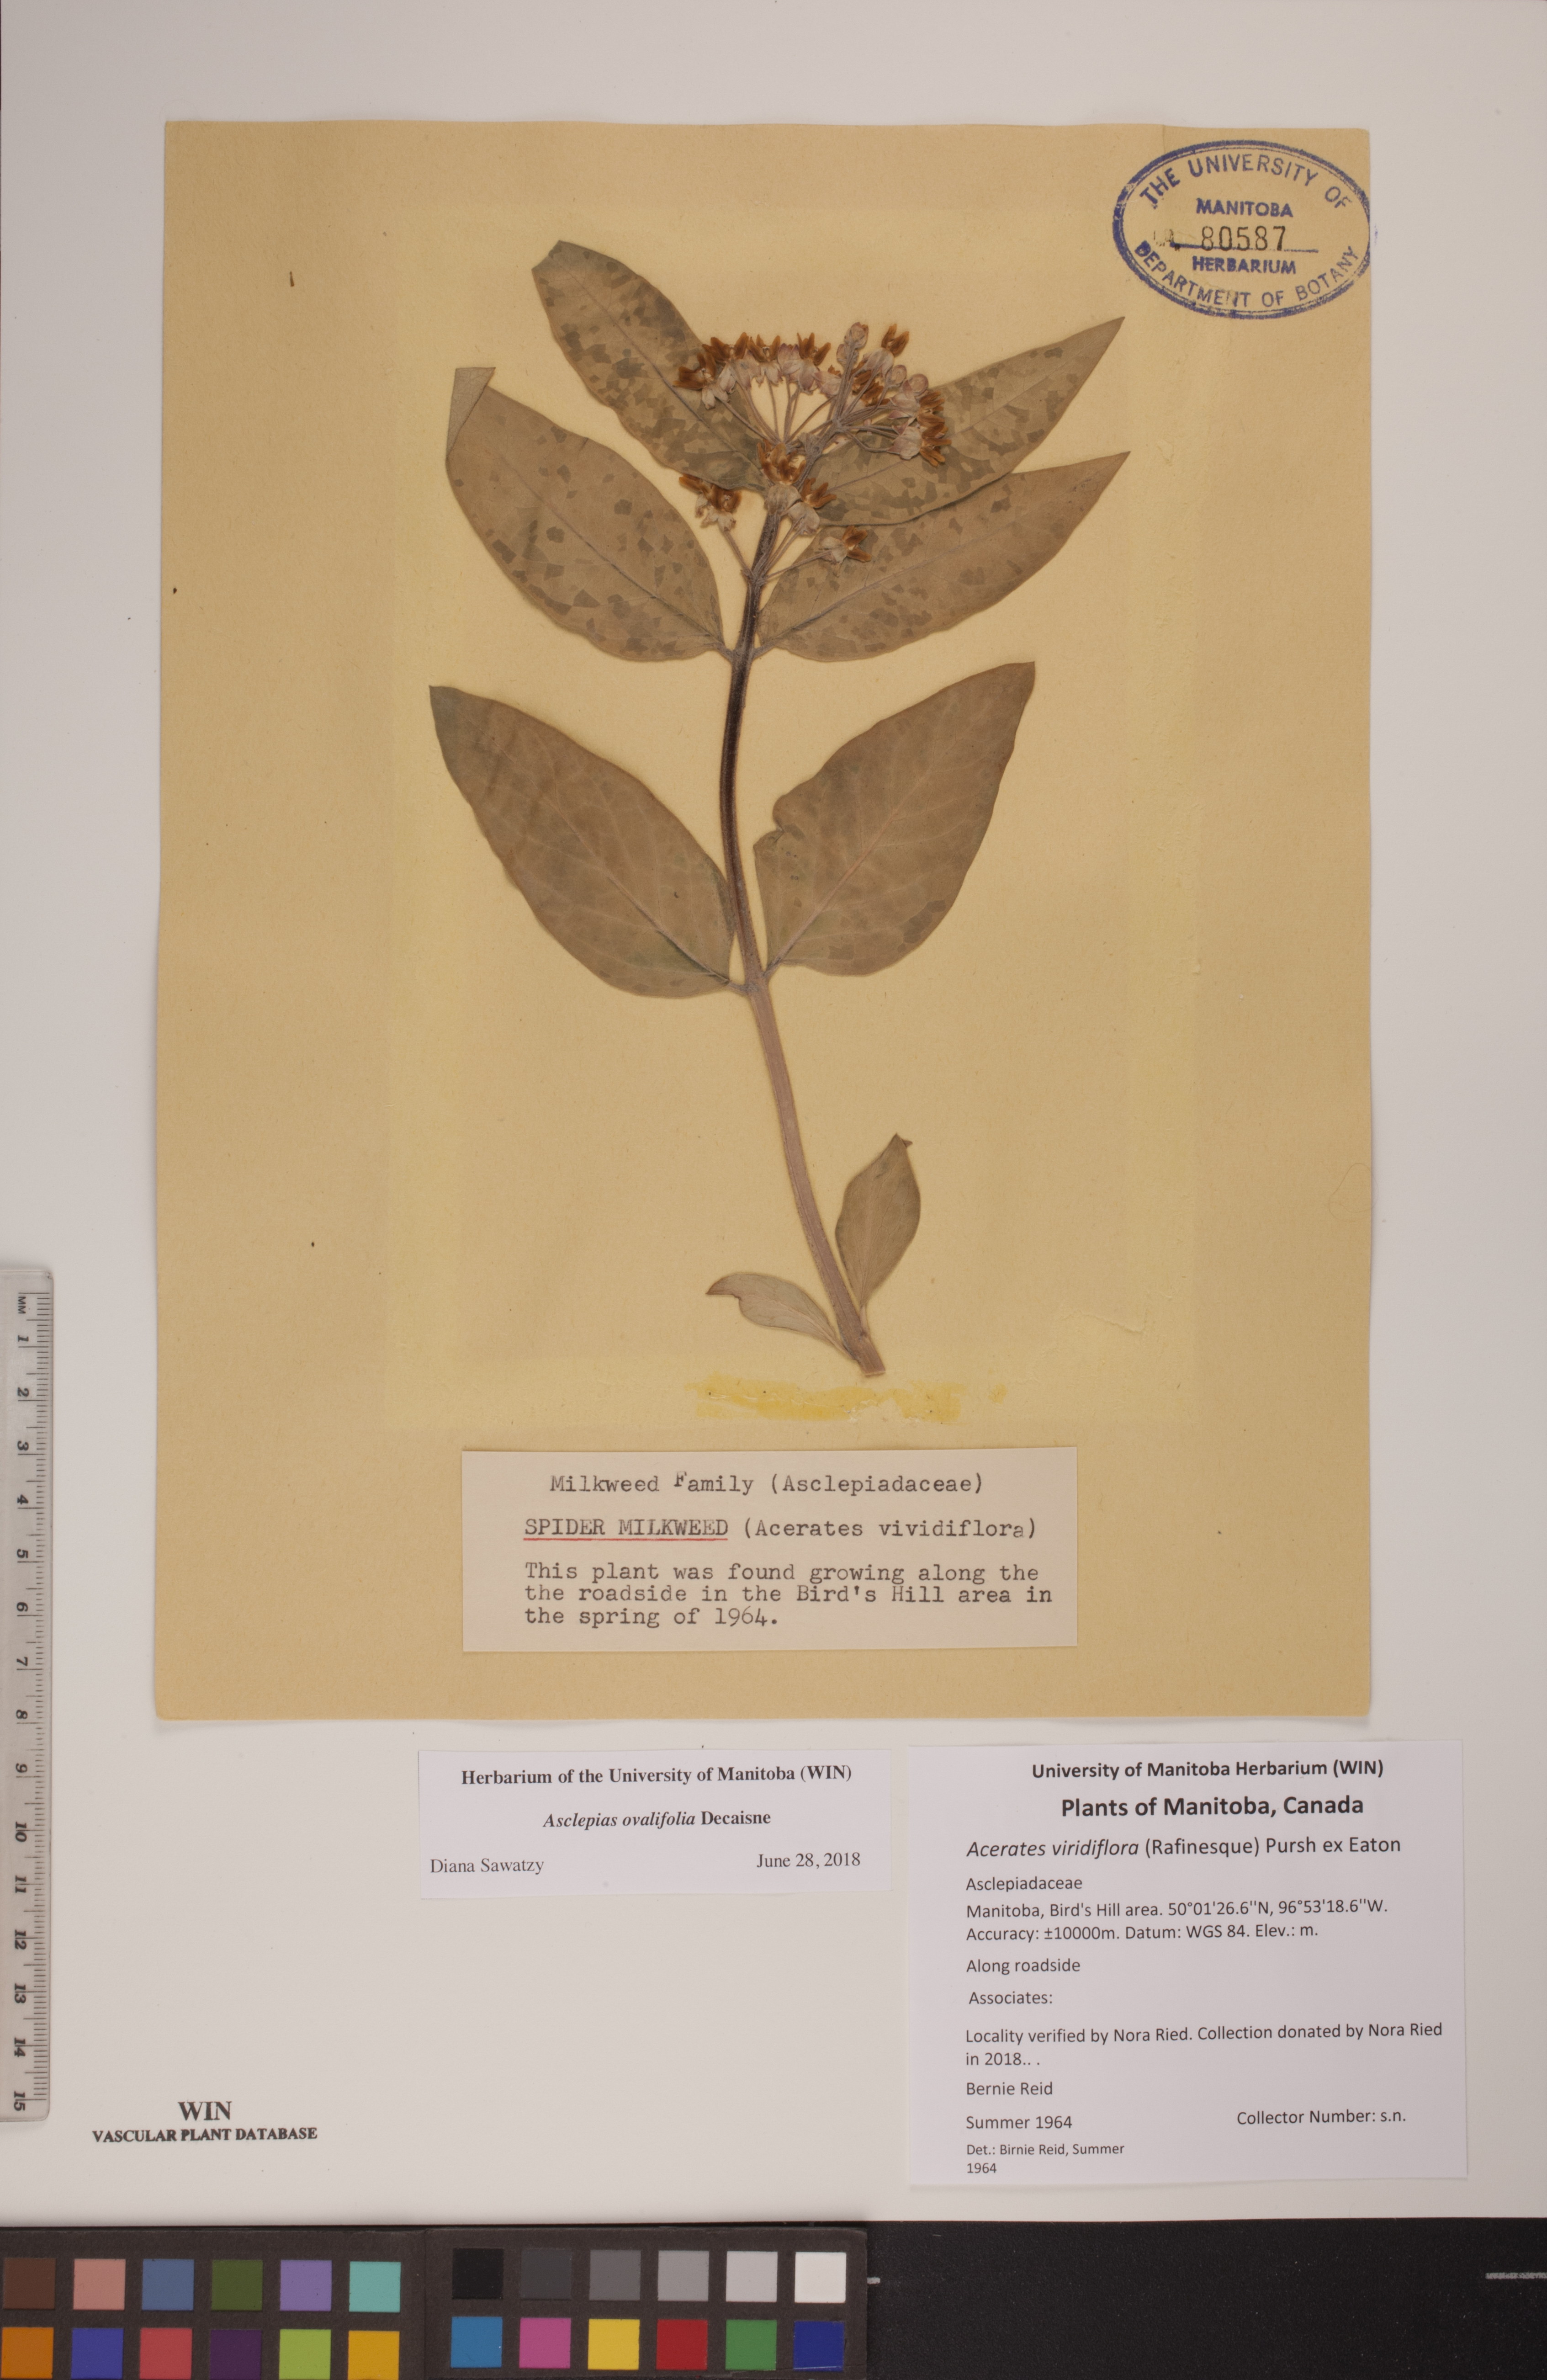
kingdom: Plantae
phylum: Tracheophyta
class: Magnoliopsida
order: Gentianales
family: Apocynaceae
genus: Asclepias
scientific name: Asclepias ovalifolia
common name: Dwarf milkweed
